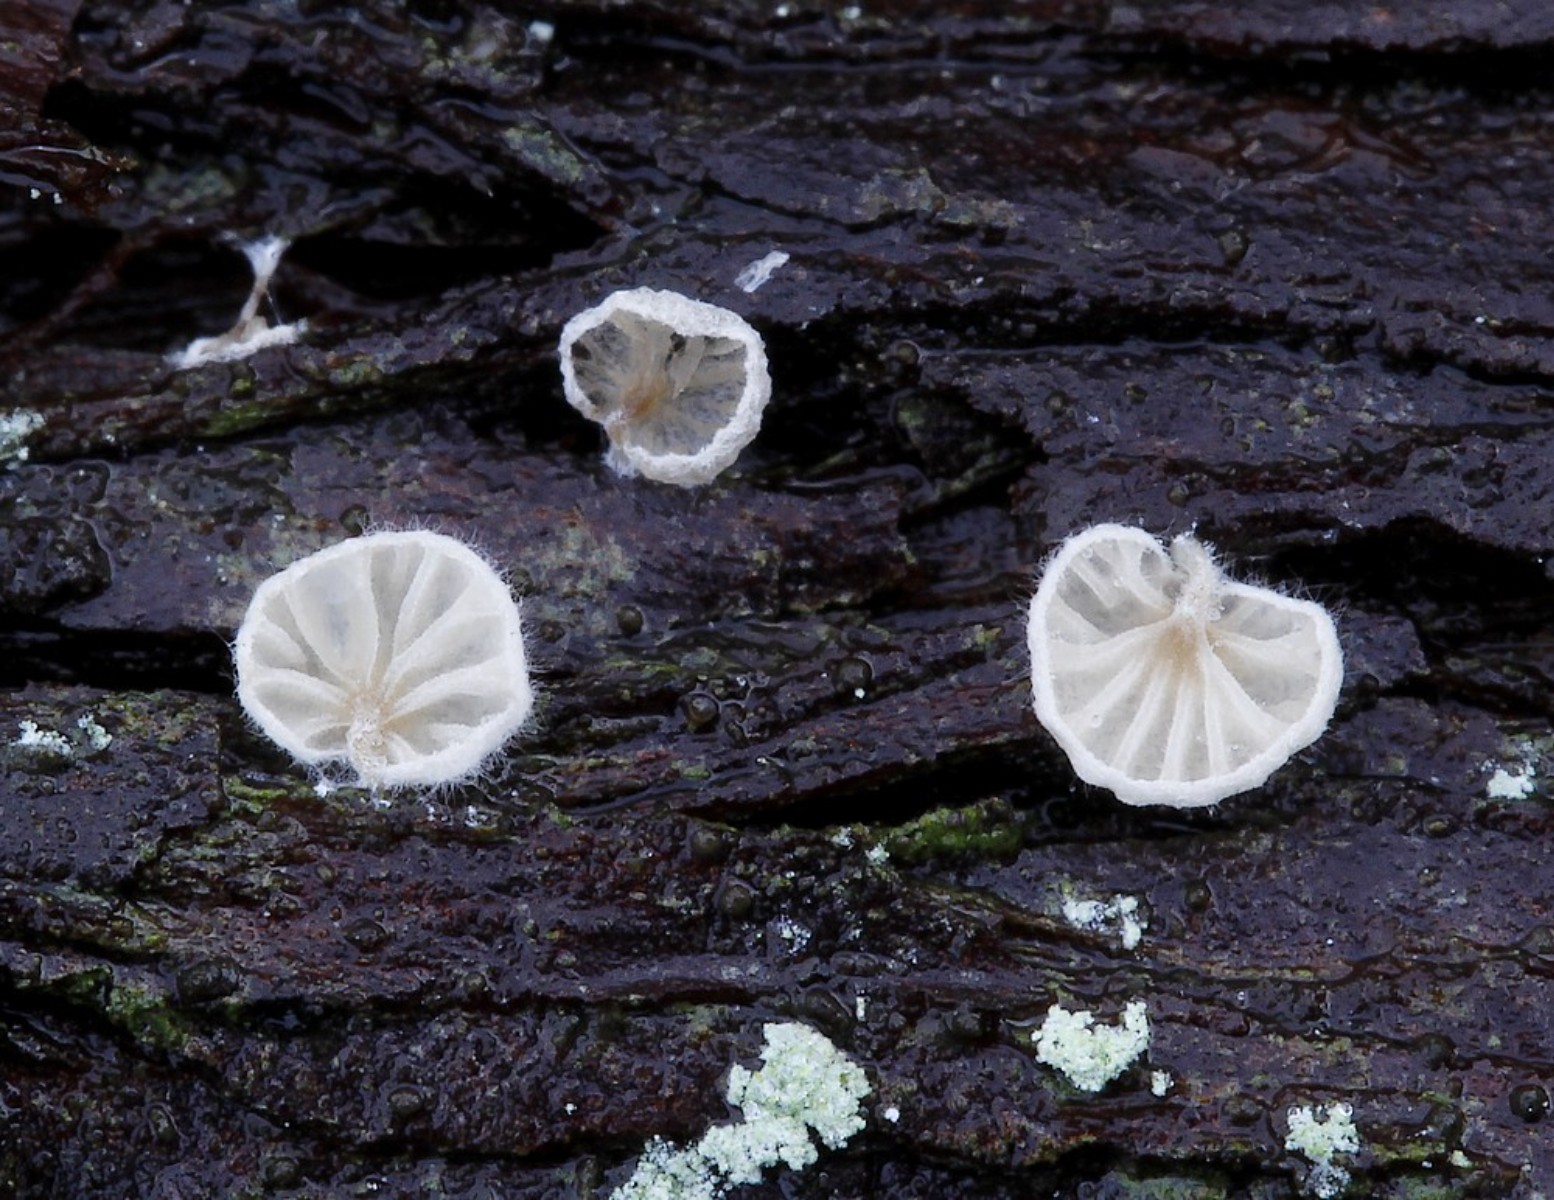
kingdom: Fungi
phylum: Basidiomycota
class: Agaricomycetes
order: Agaricales
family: Entolomataceae
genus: Clitopilus
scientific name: Clitopilus hobsonii
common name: Miller's oysterling
